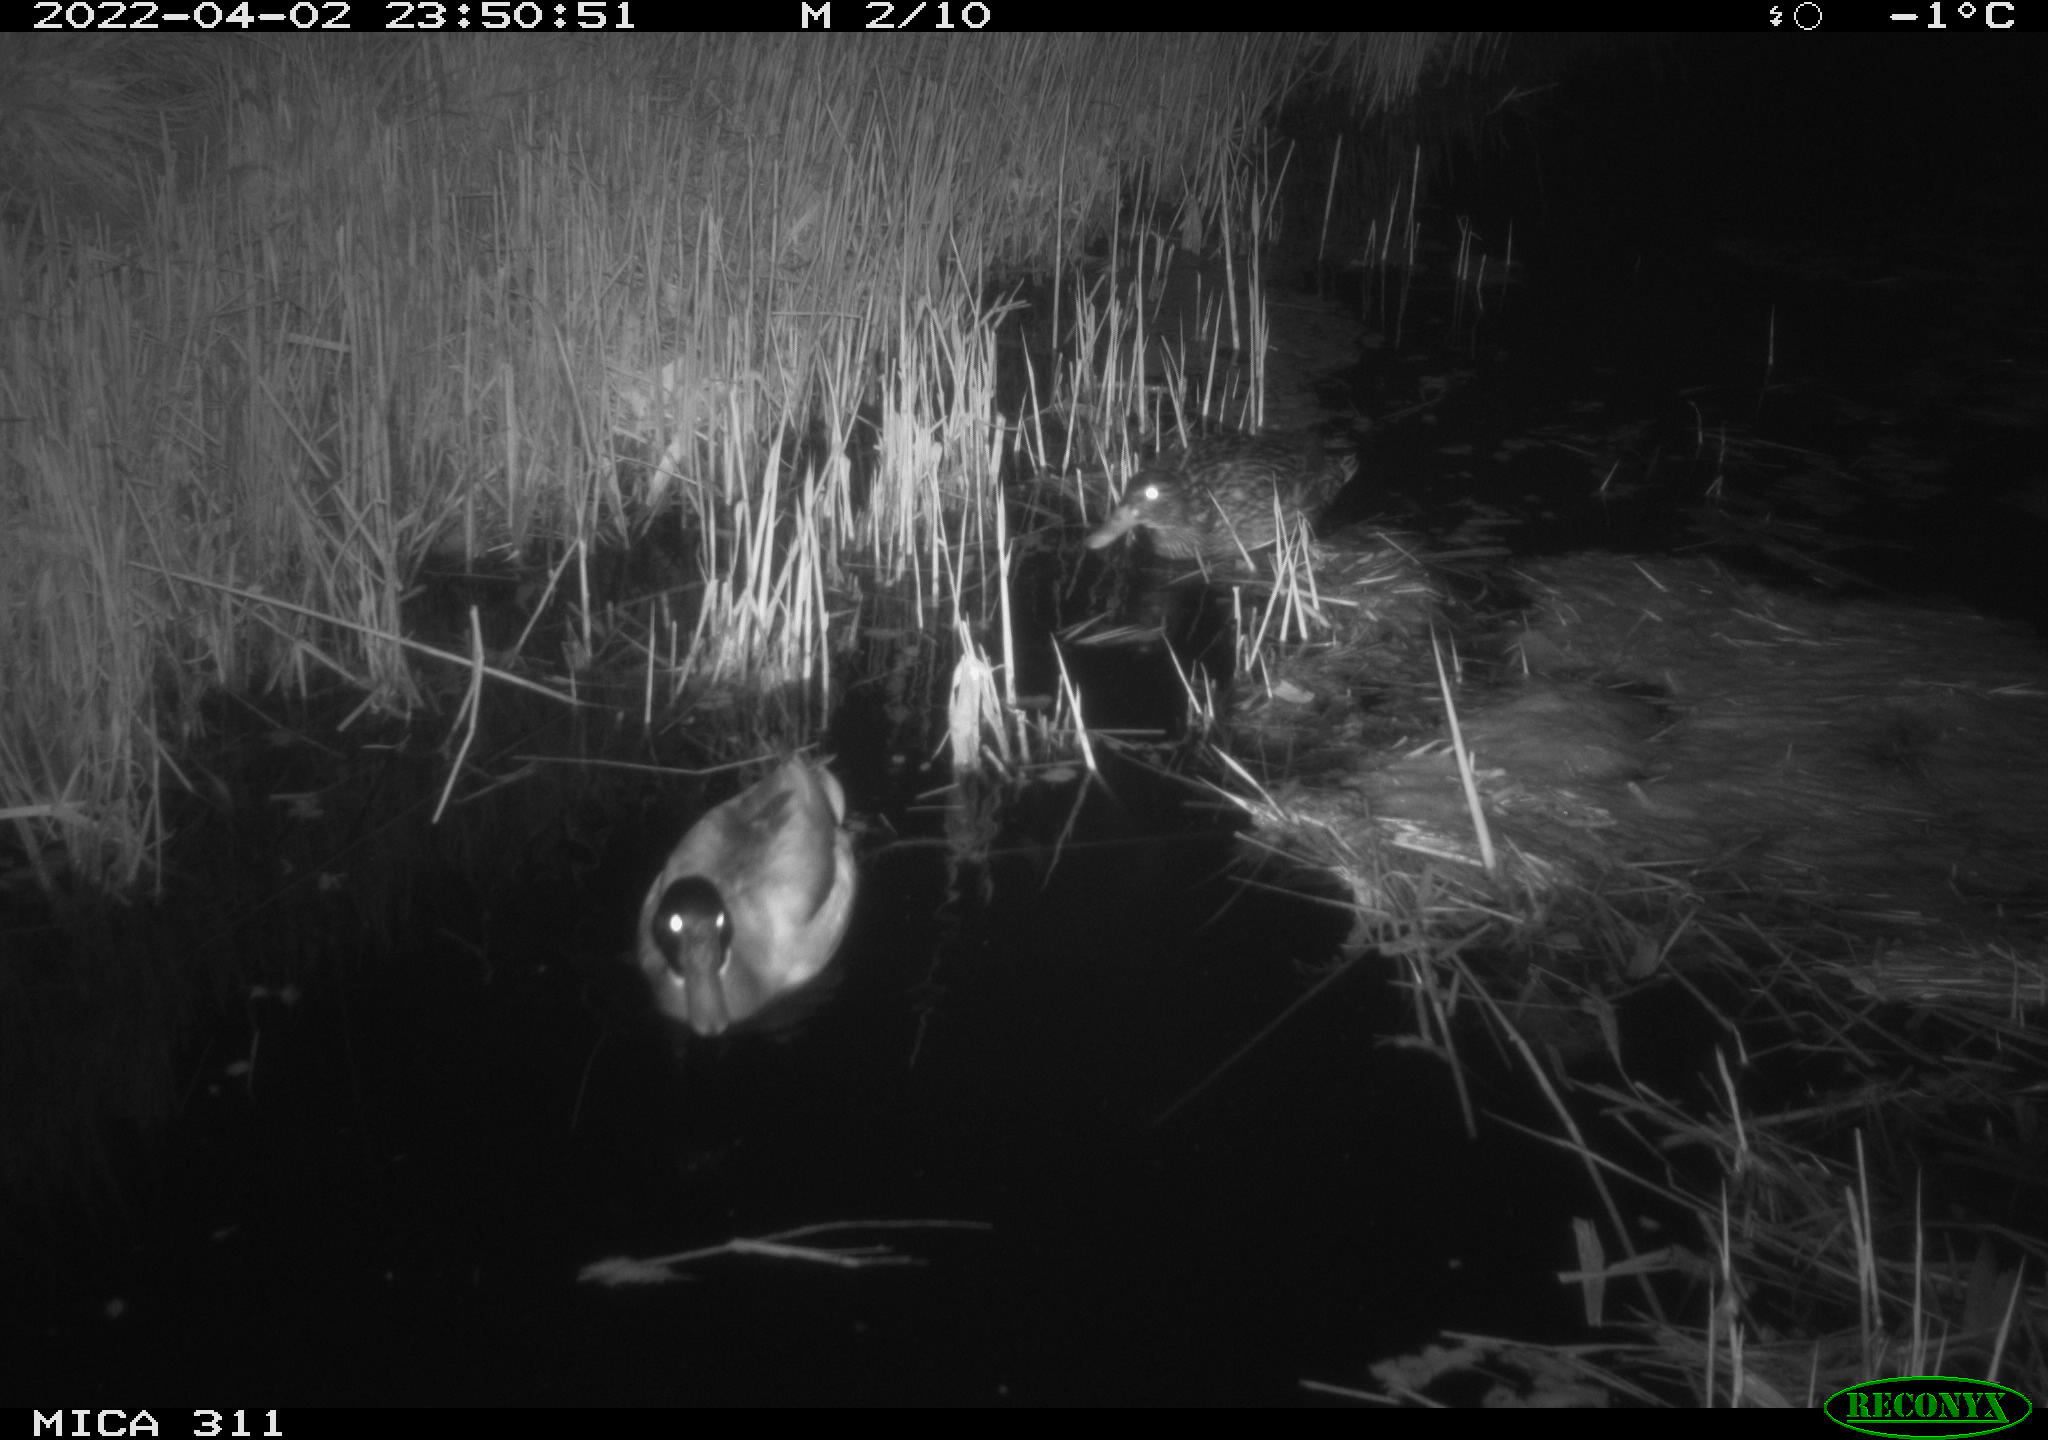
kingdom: Animalia
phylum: Chordata
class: Aves
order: Anseriformes
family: Anatidae
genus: Anas
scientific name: Anas platyrhynchos
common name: Mallard
